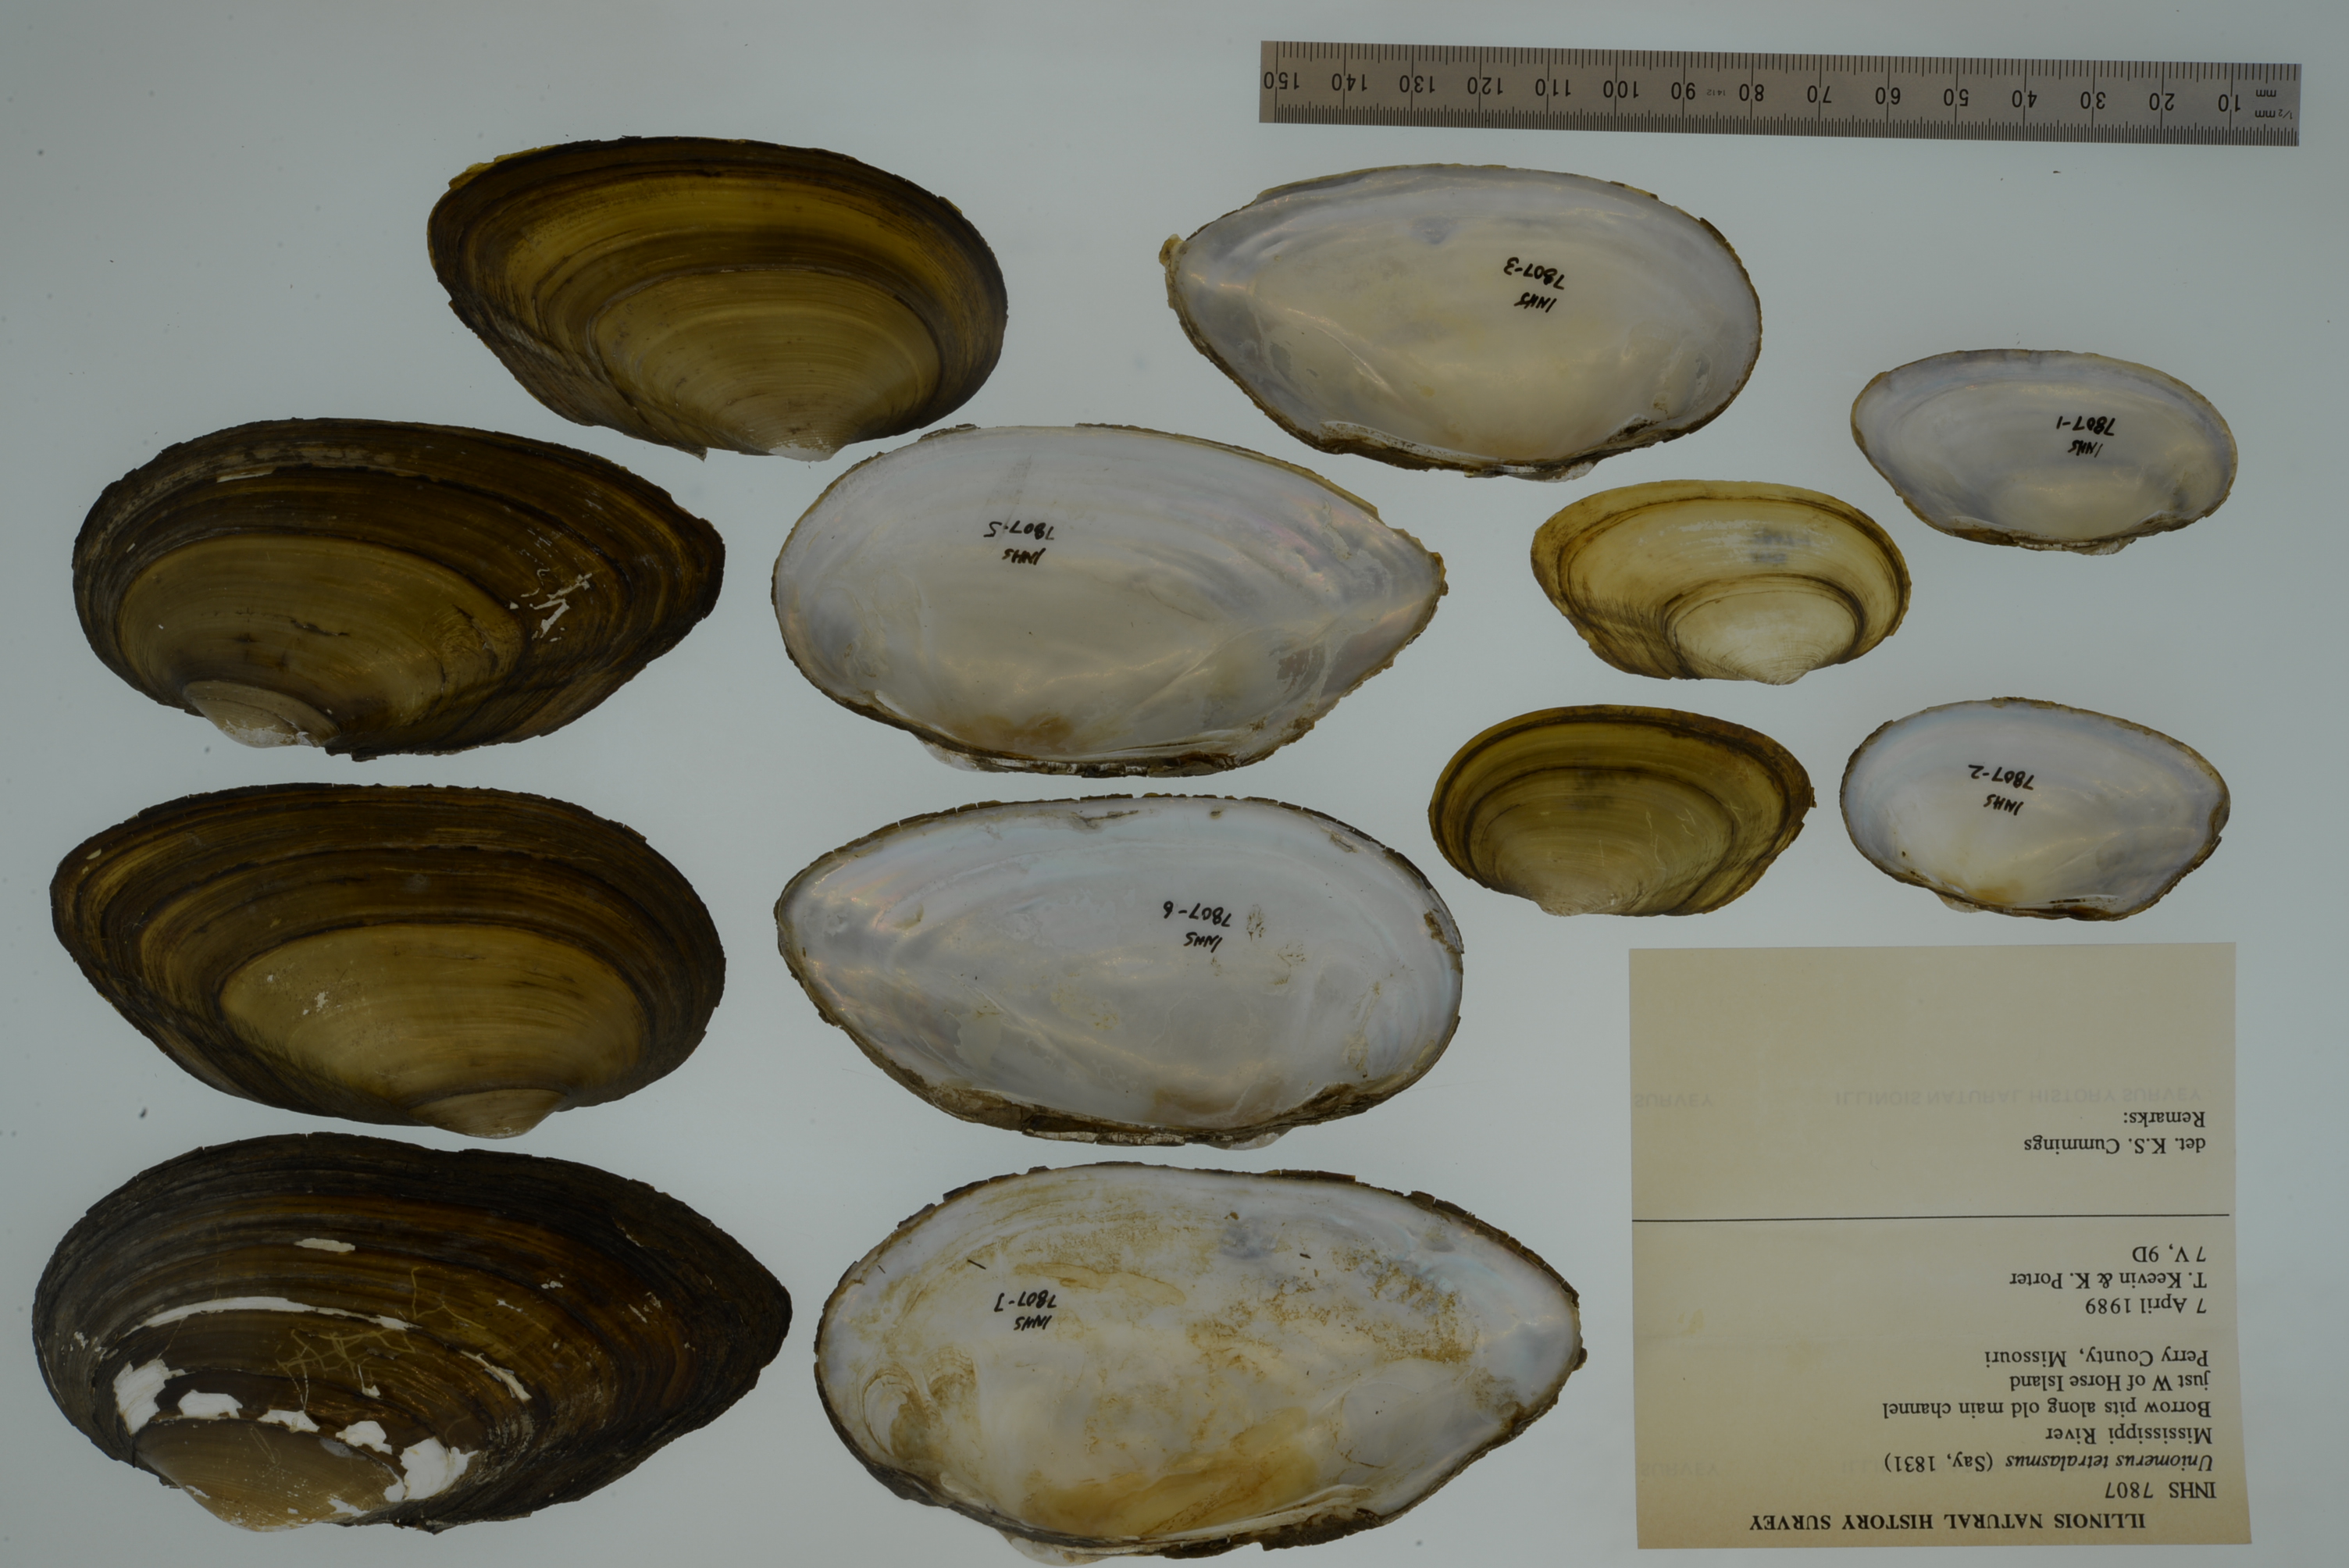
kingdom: Animalia
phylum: Mollusca
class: Bivalvia
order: Unionida
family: Unionidae
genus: Uniomerus
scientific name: Uniomerus tetralasmus
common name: Pondhorn
